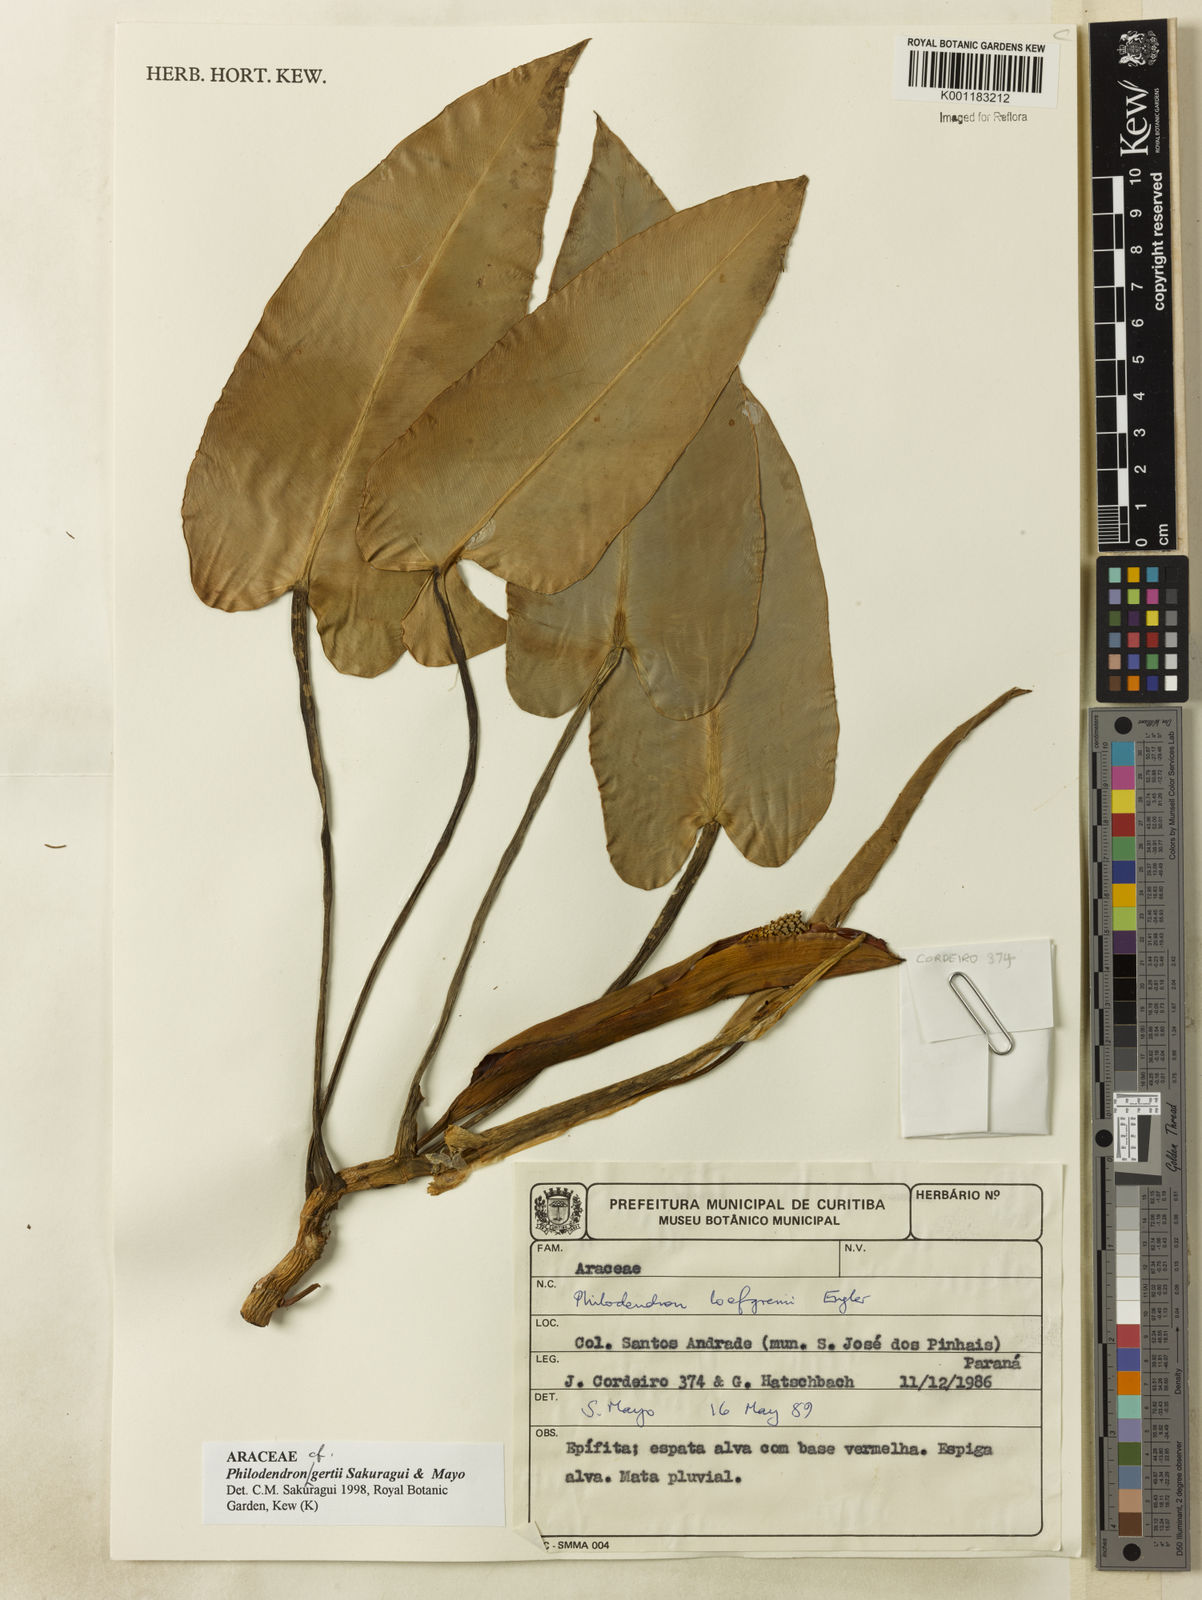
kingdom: Plantae
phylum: Tracheophyta
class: Liliopsida
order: Alismatales
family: Araceae
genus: Philodendron
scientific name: Philodendron
